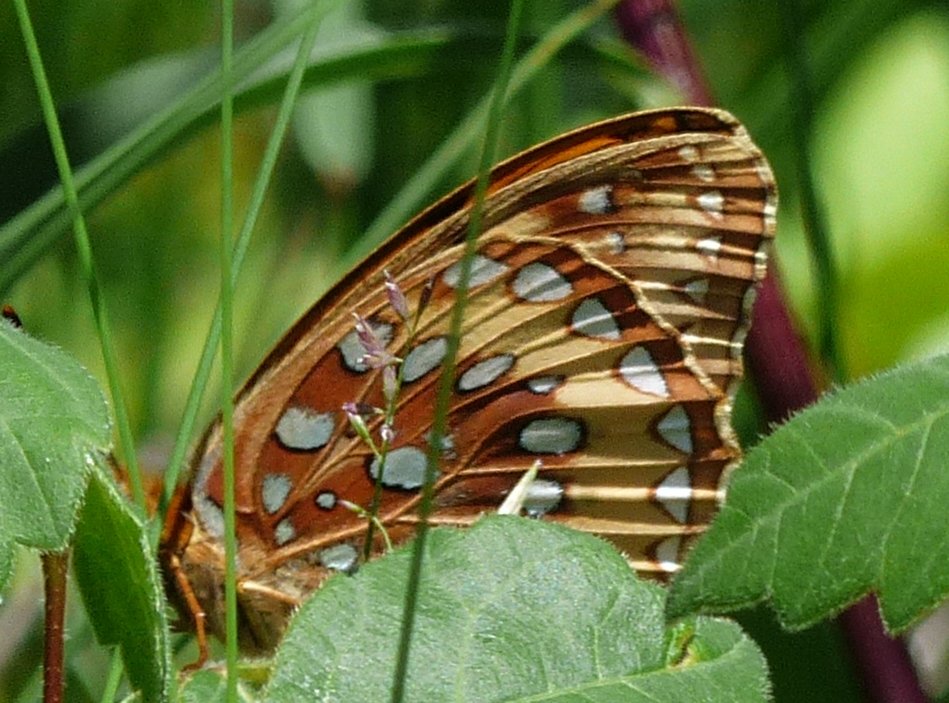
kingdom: Animalia
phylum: Arthropoda
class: Insecta
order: Lepidoptera
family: Nymphalidae
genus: Speyeria
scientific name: Speyeria cybele
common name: Great Spangled Fritillary
